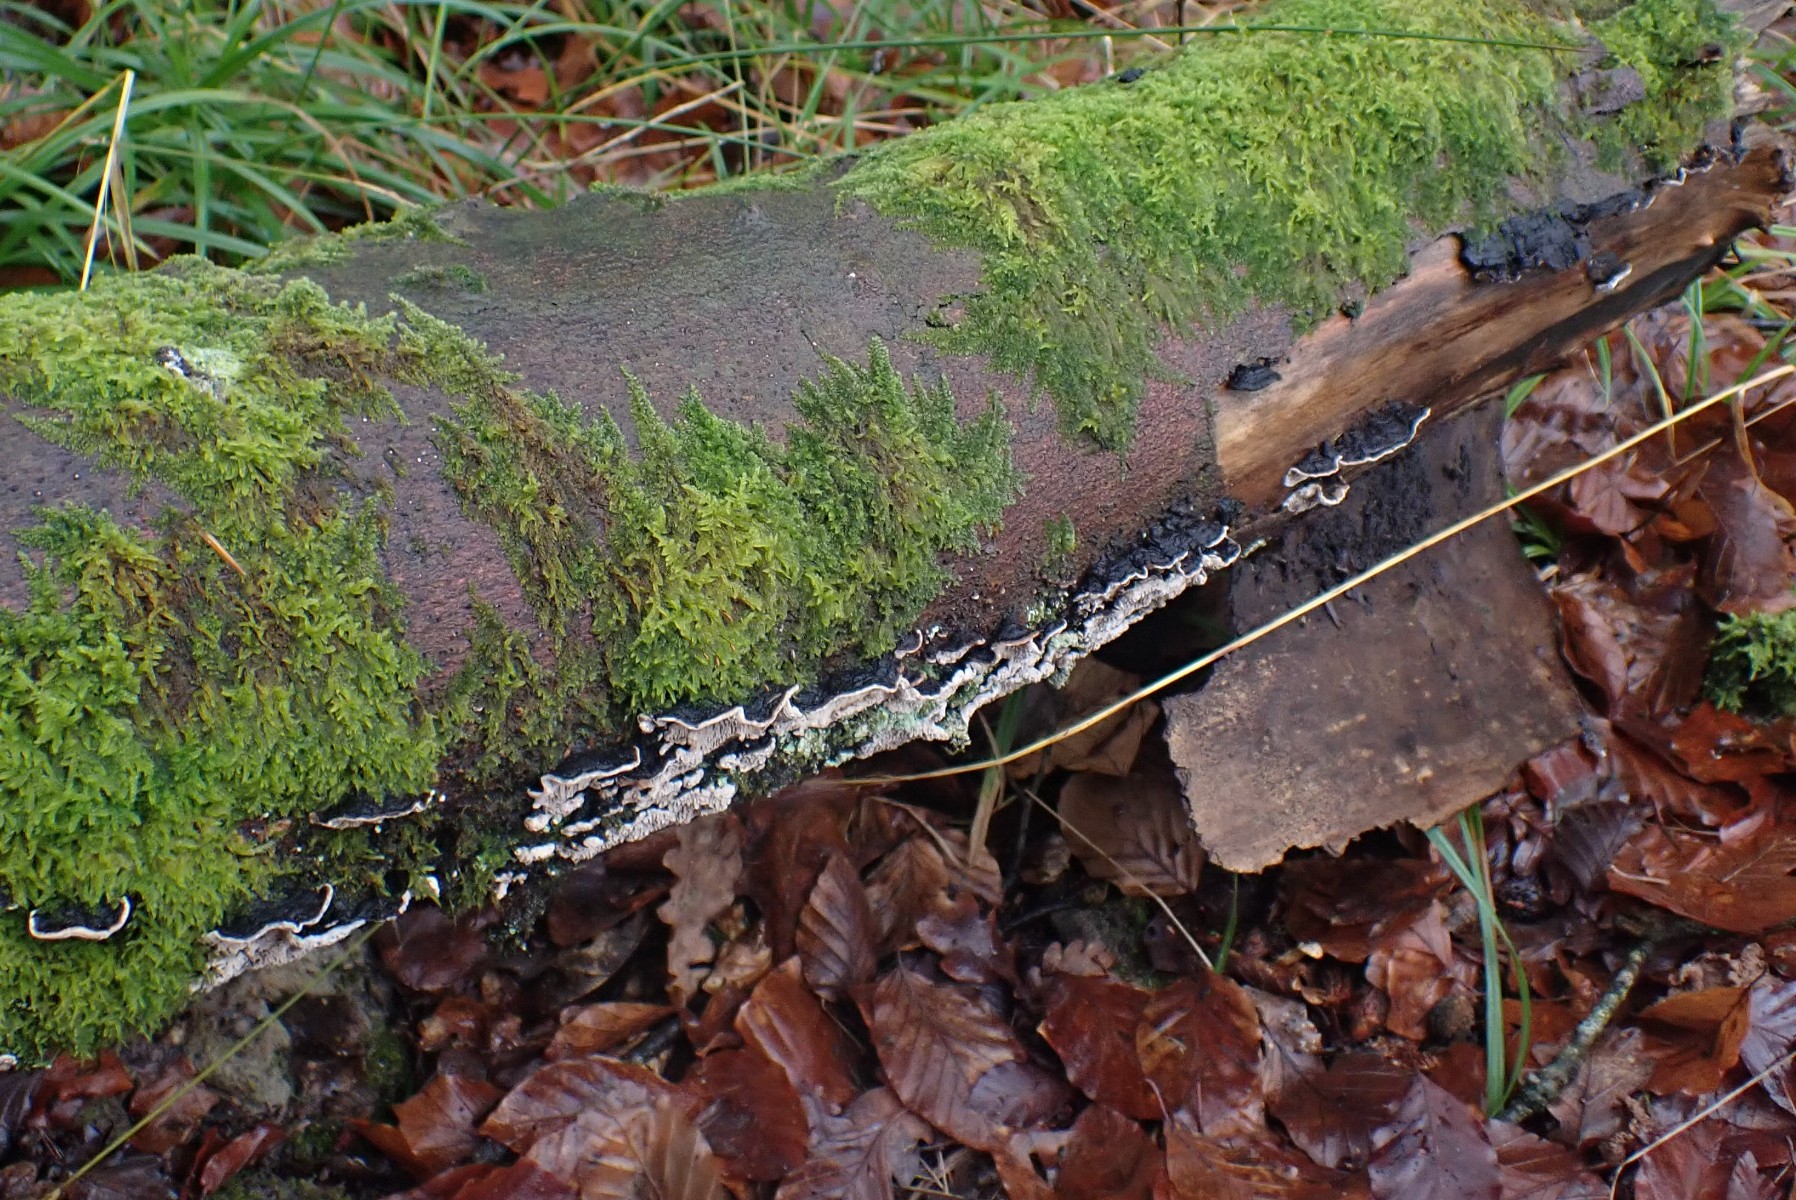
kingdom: Fungi
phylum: Basidiomycota
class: Agaricomycetes
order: Polyporales
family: Polyporaceae
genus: Podofomes
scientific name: Podofomes mollis
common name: blød begporesvamp
